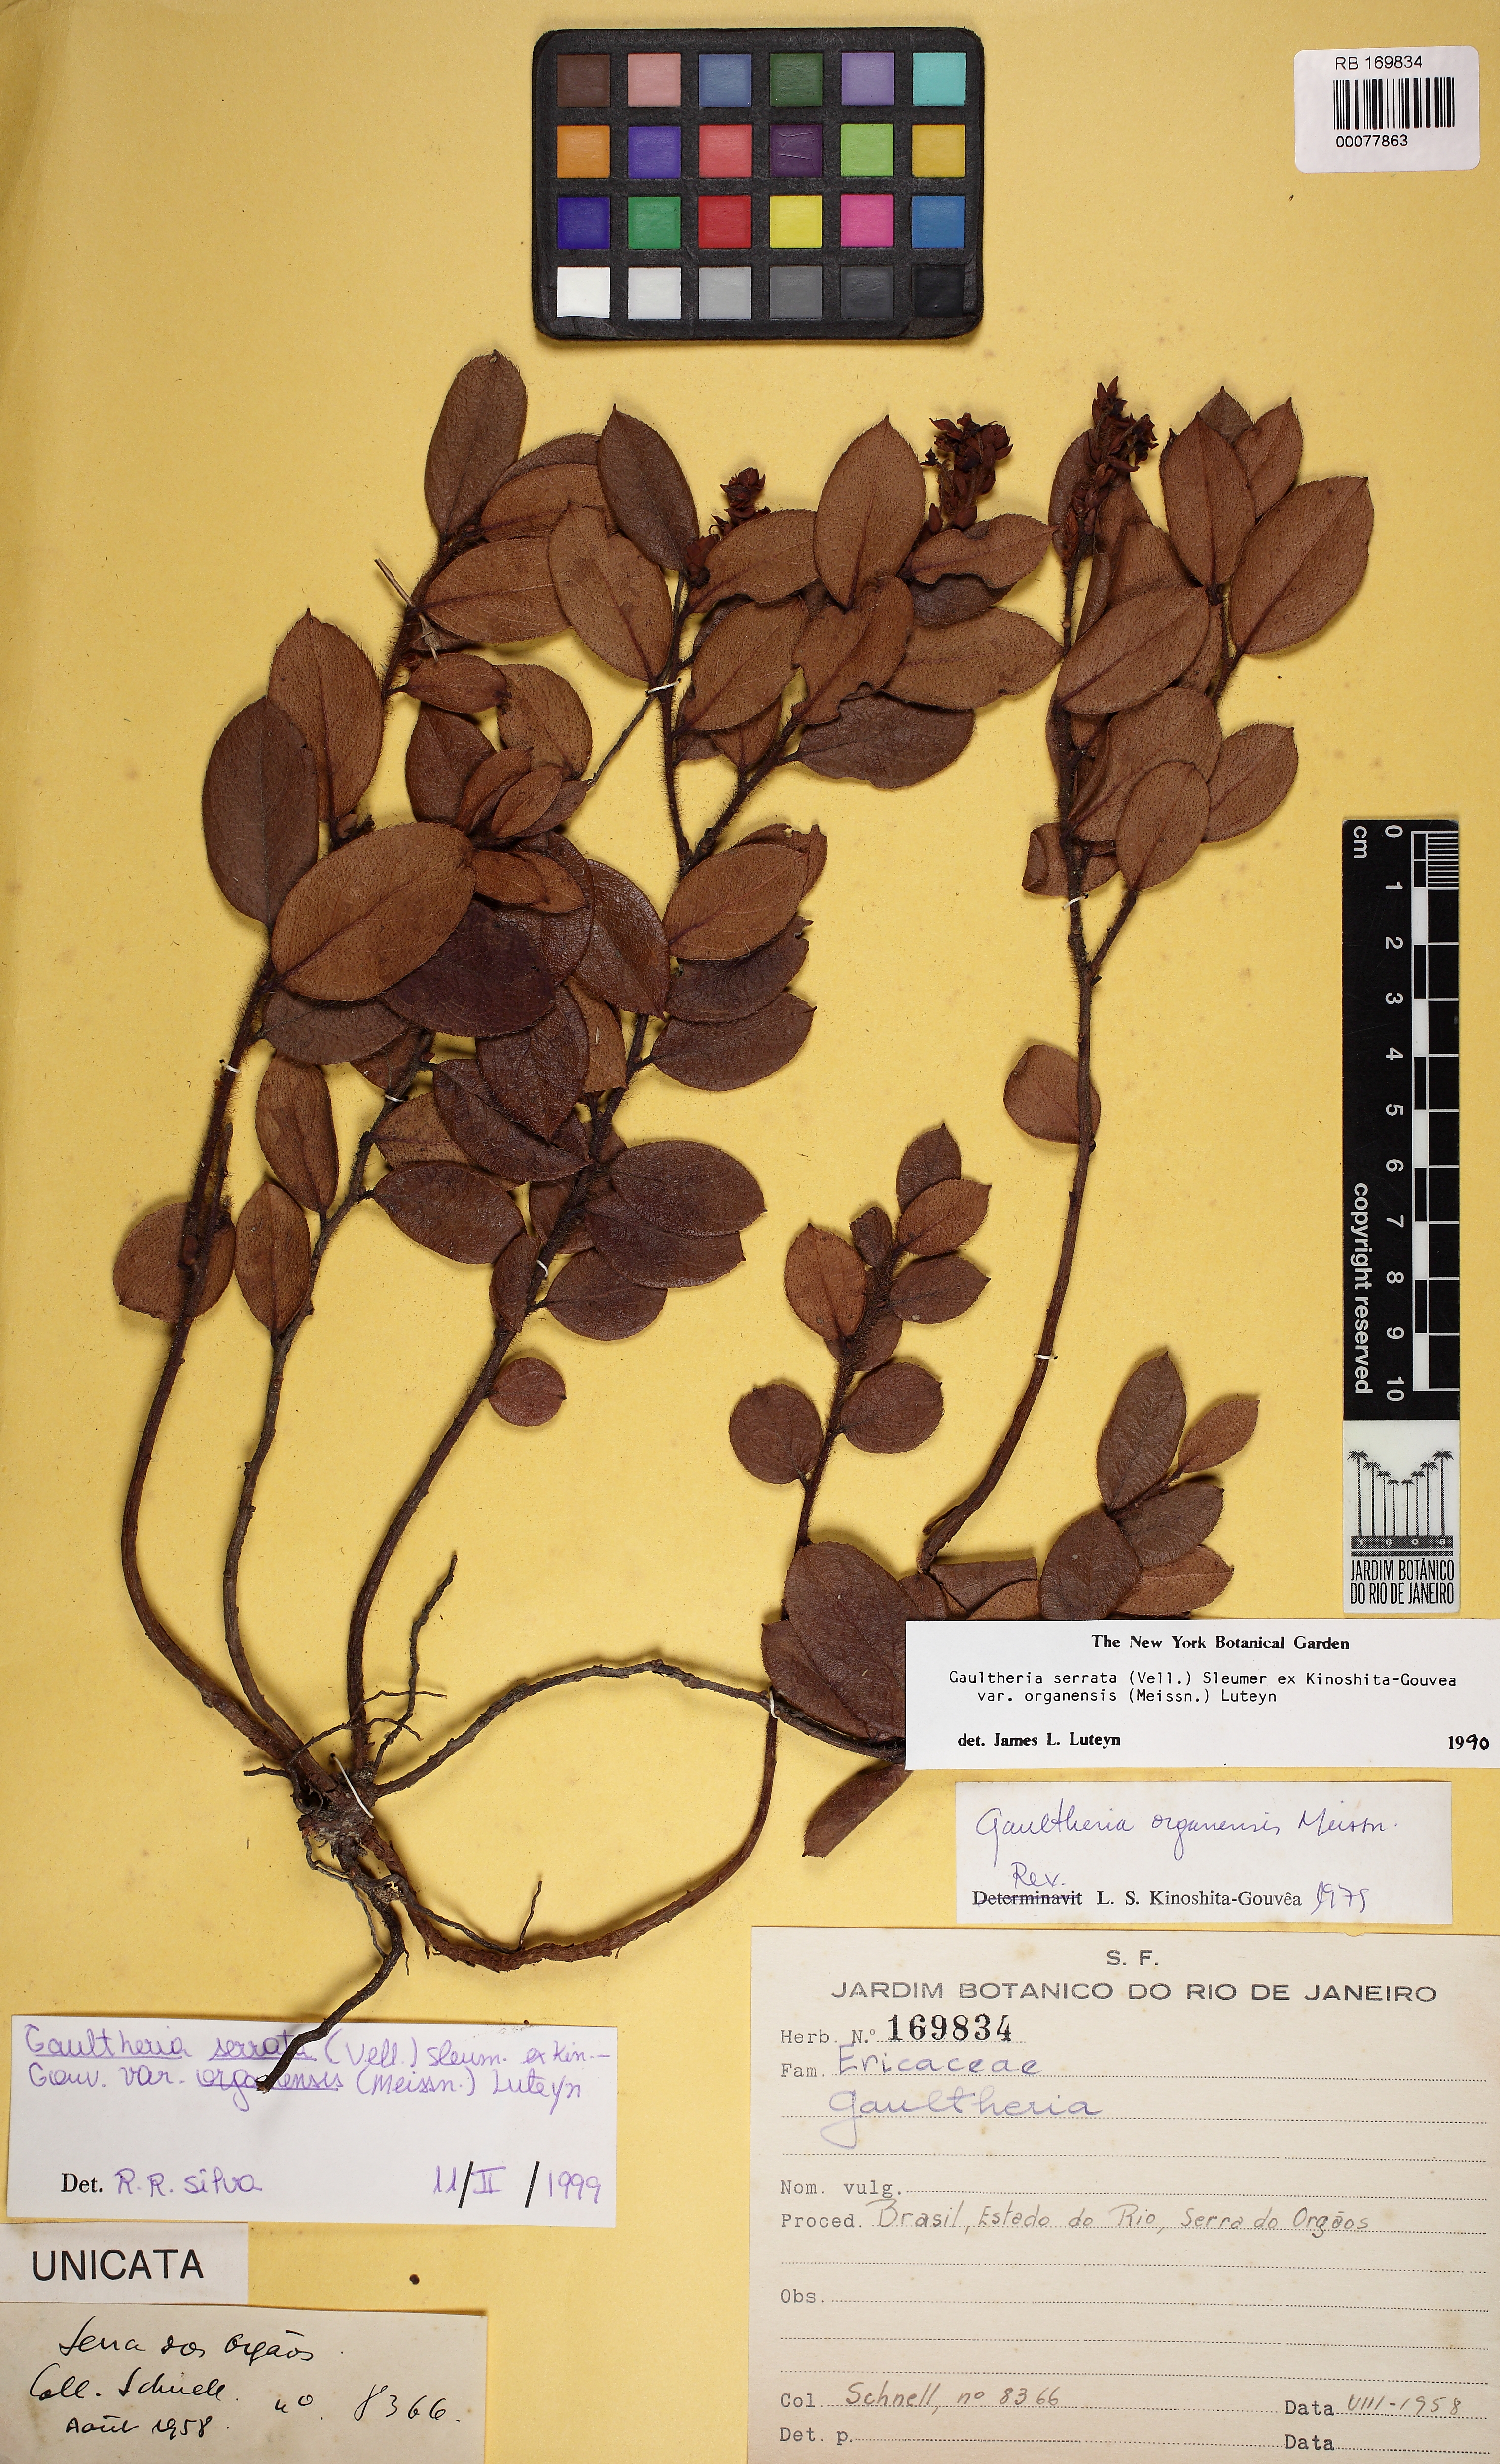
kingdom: Plantae
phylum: Tracheophyta
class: Magnoliopsida
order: Ericales
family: Ericaceae
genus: Gaultheria
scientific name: Gaultheria serrata
